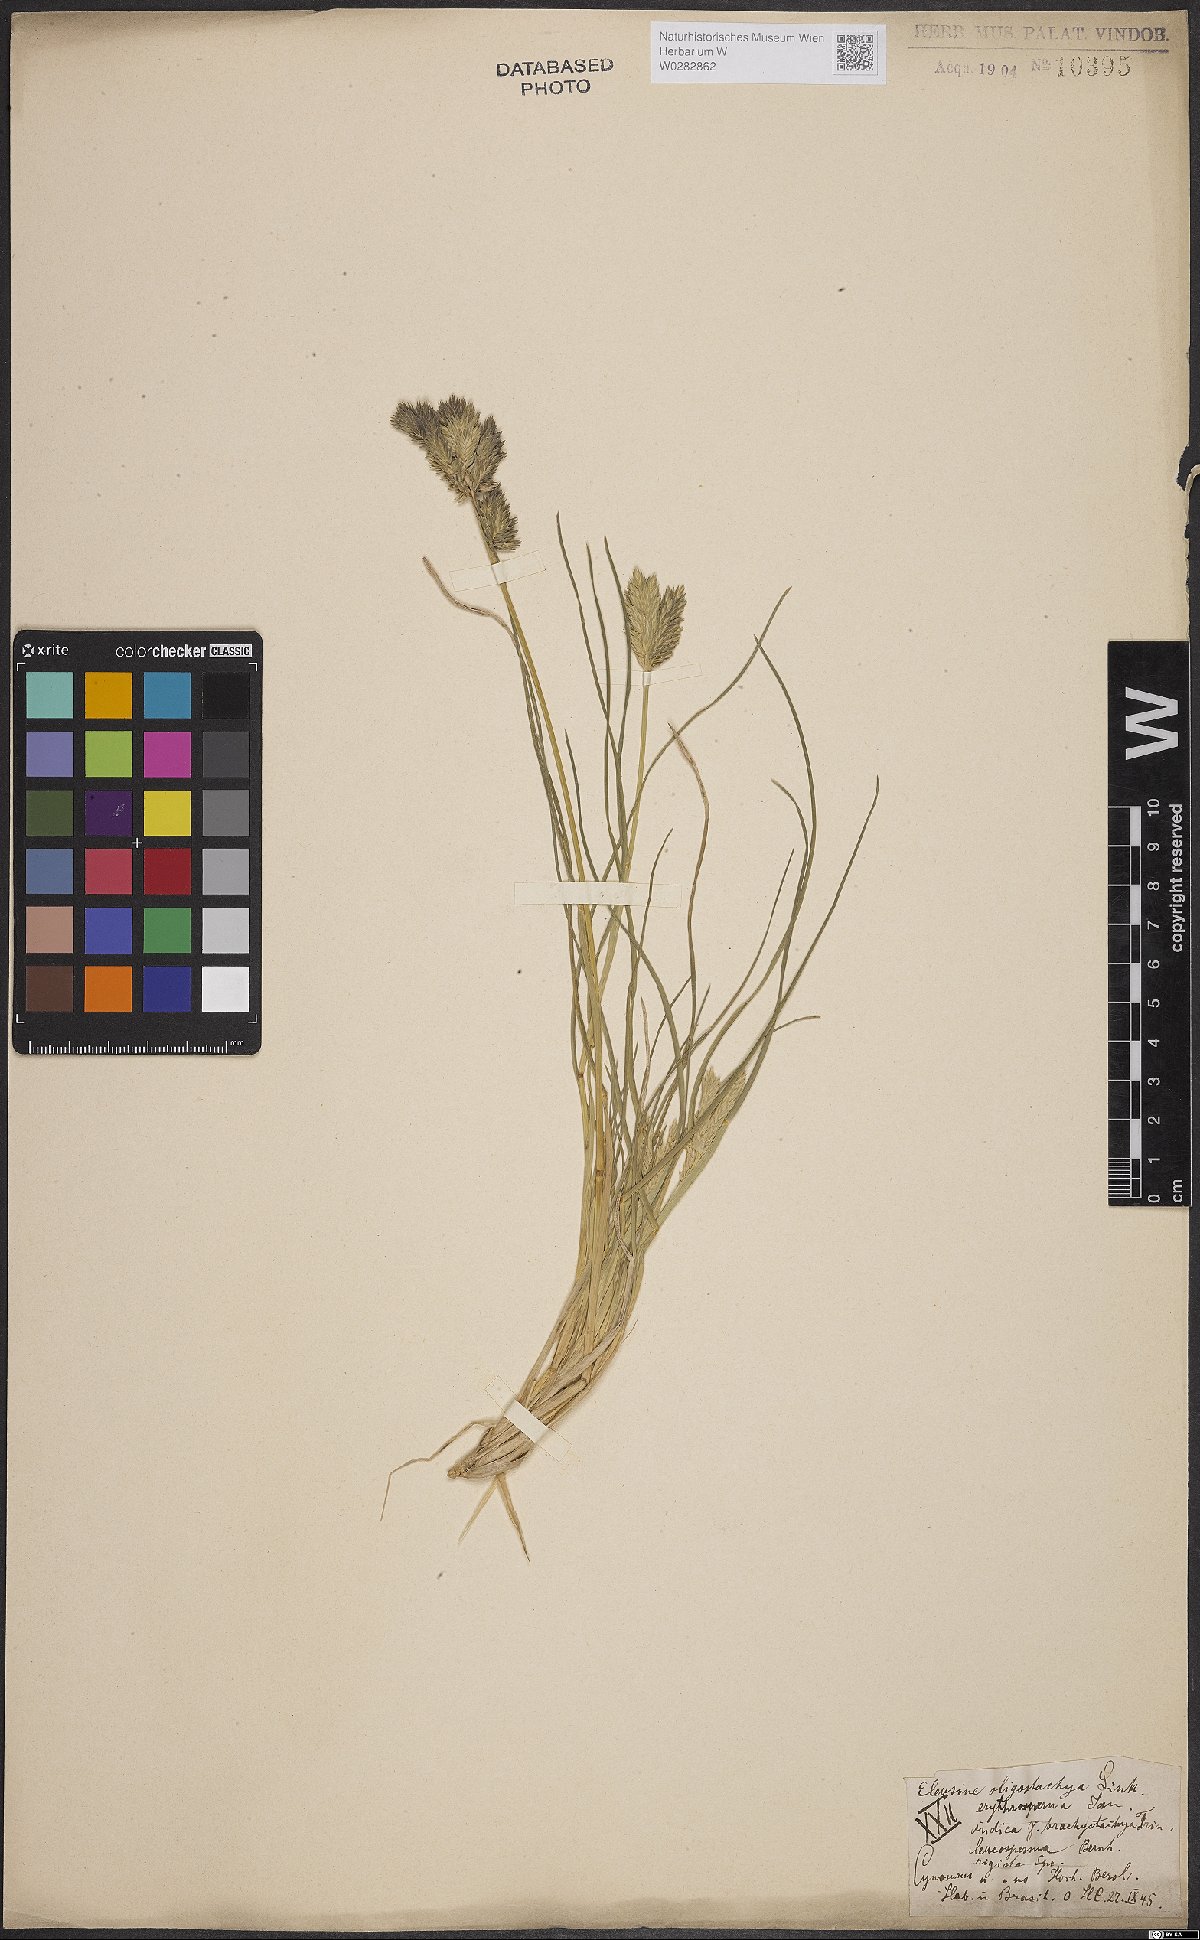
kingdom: Plantae
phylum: Tracheophyta
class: Liliopsida
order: Poales
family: Poaceae
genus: Eleusine
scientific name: Eleusine tristachya
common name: American yard-grass
